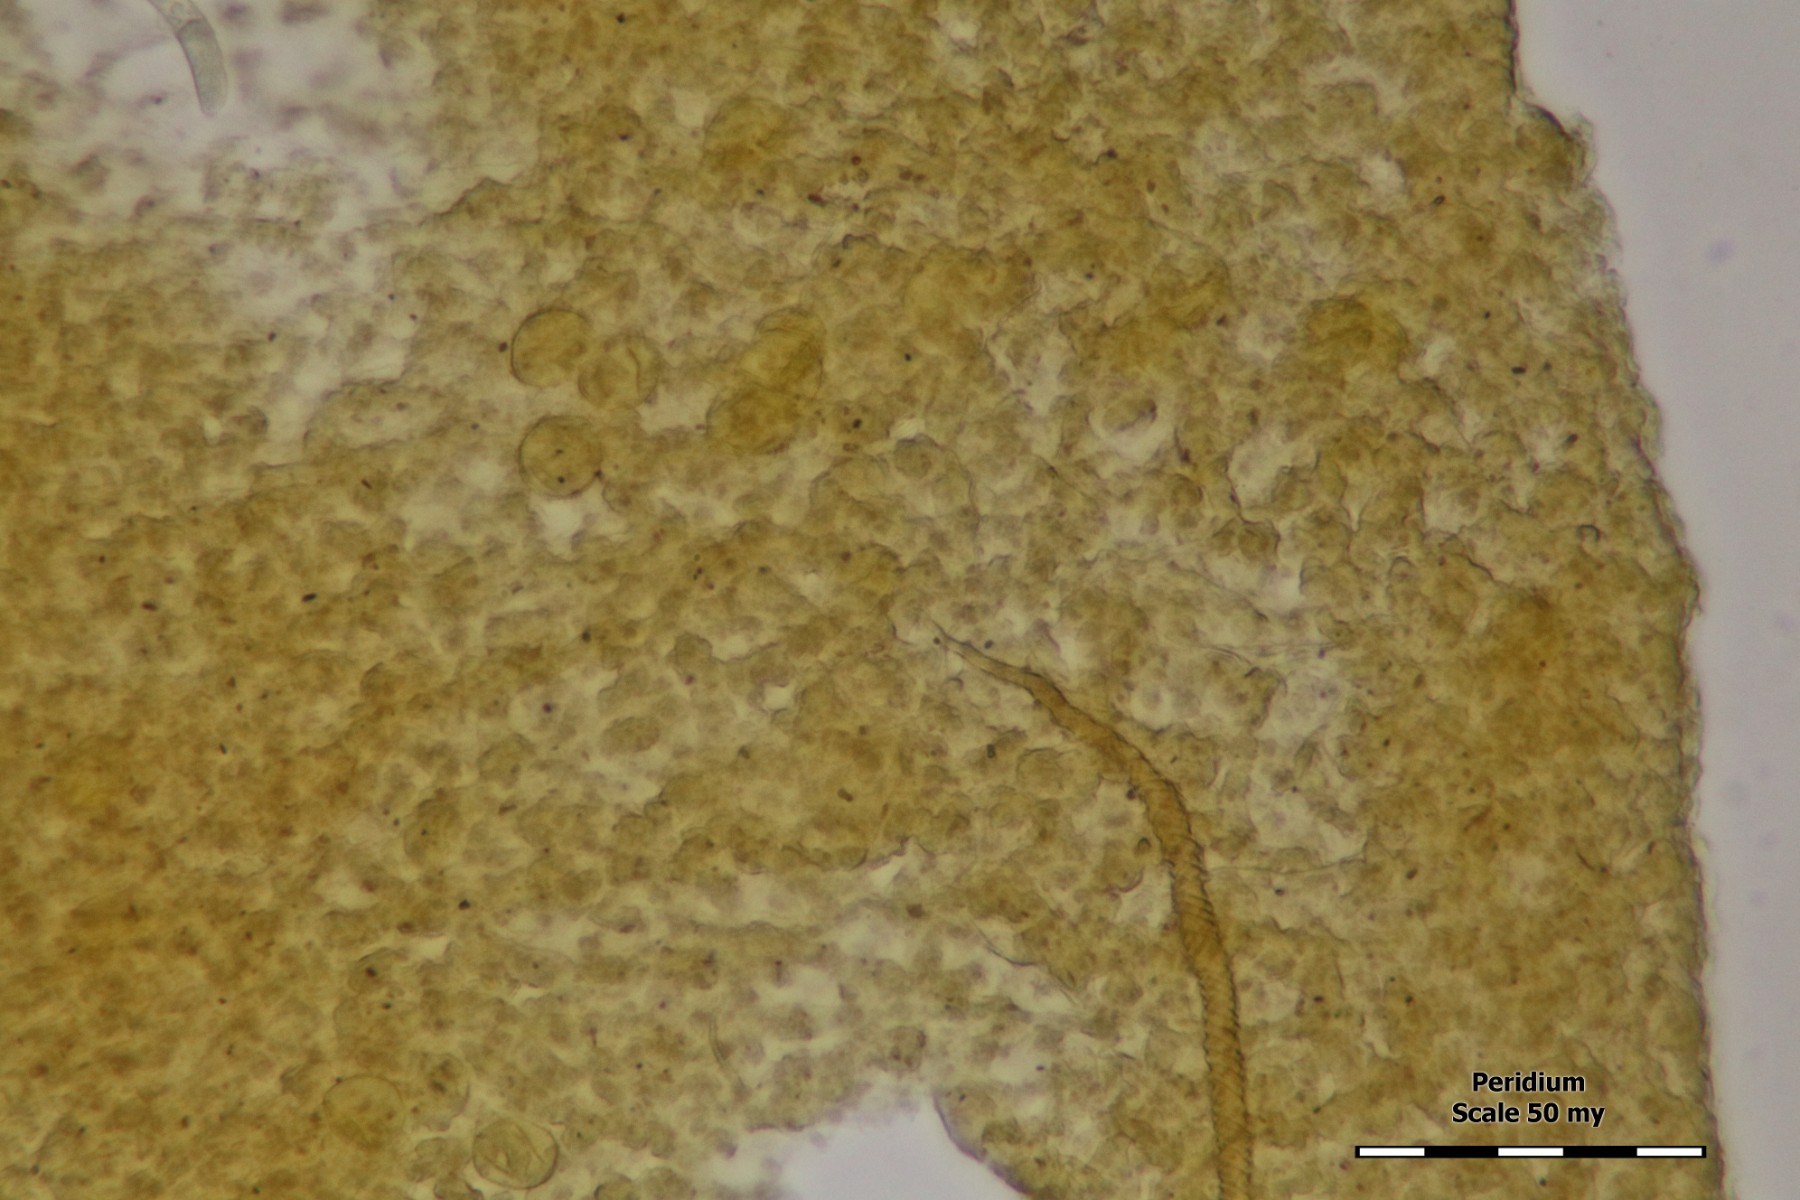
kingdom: Protozoa
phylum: Mycetozoa
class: Myxomycetes
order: Trichiales
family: Trichiaceae
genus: Trichia
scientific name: Trichia ambigua
